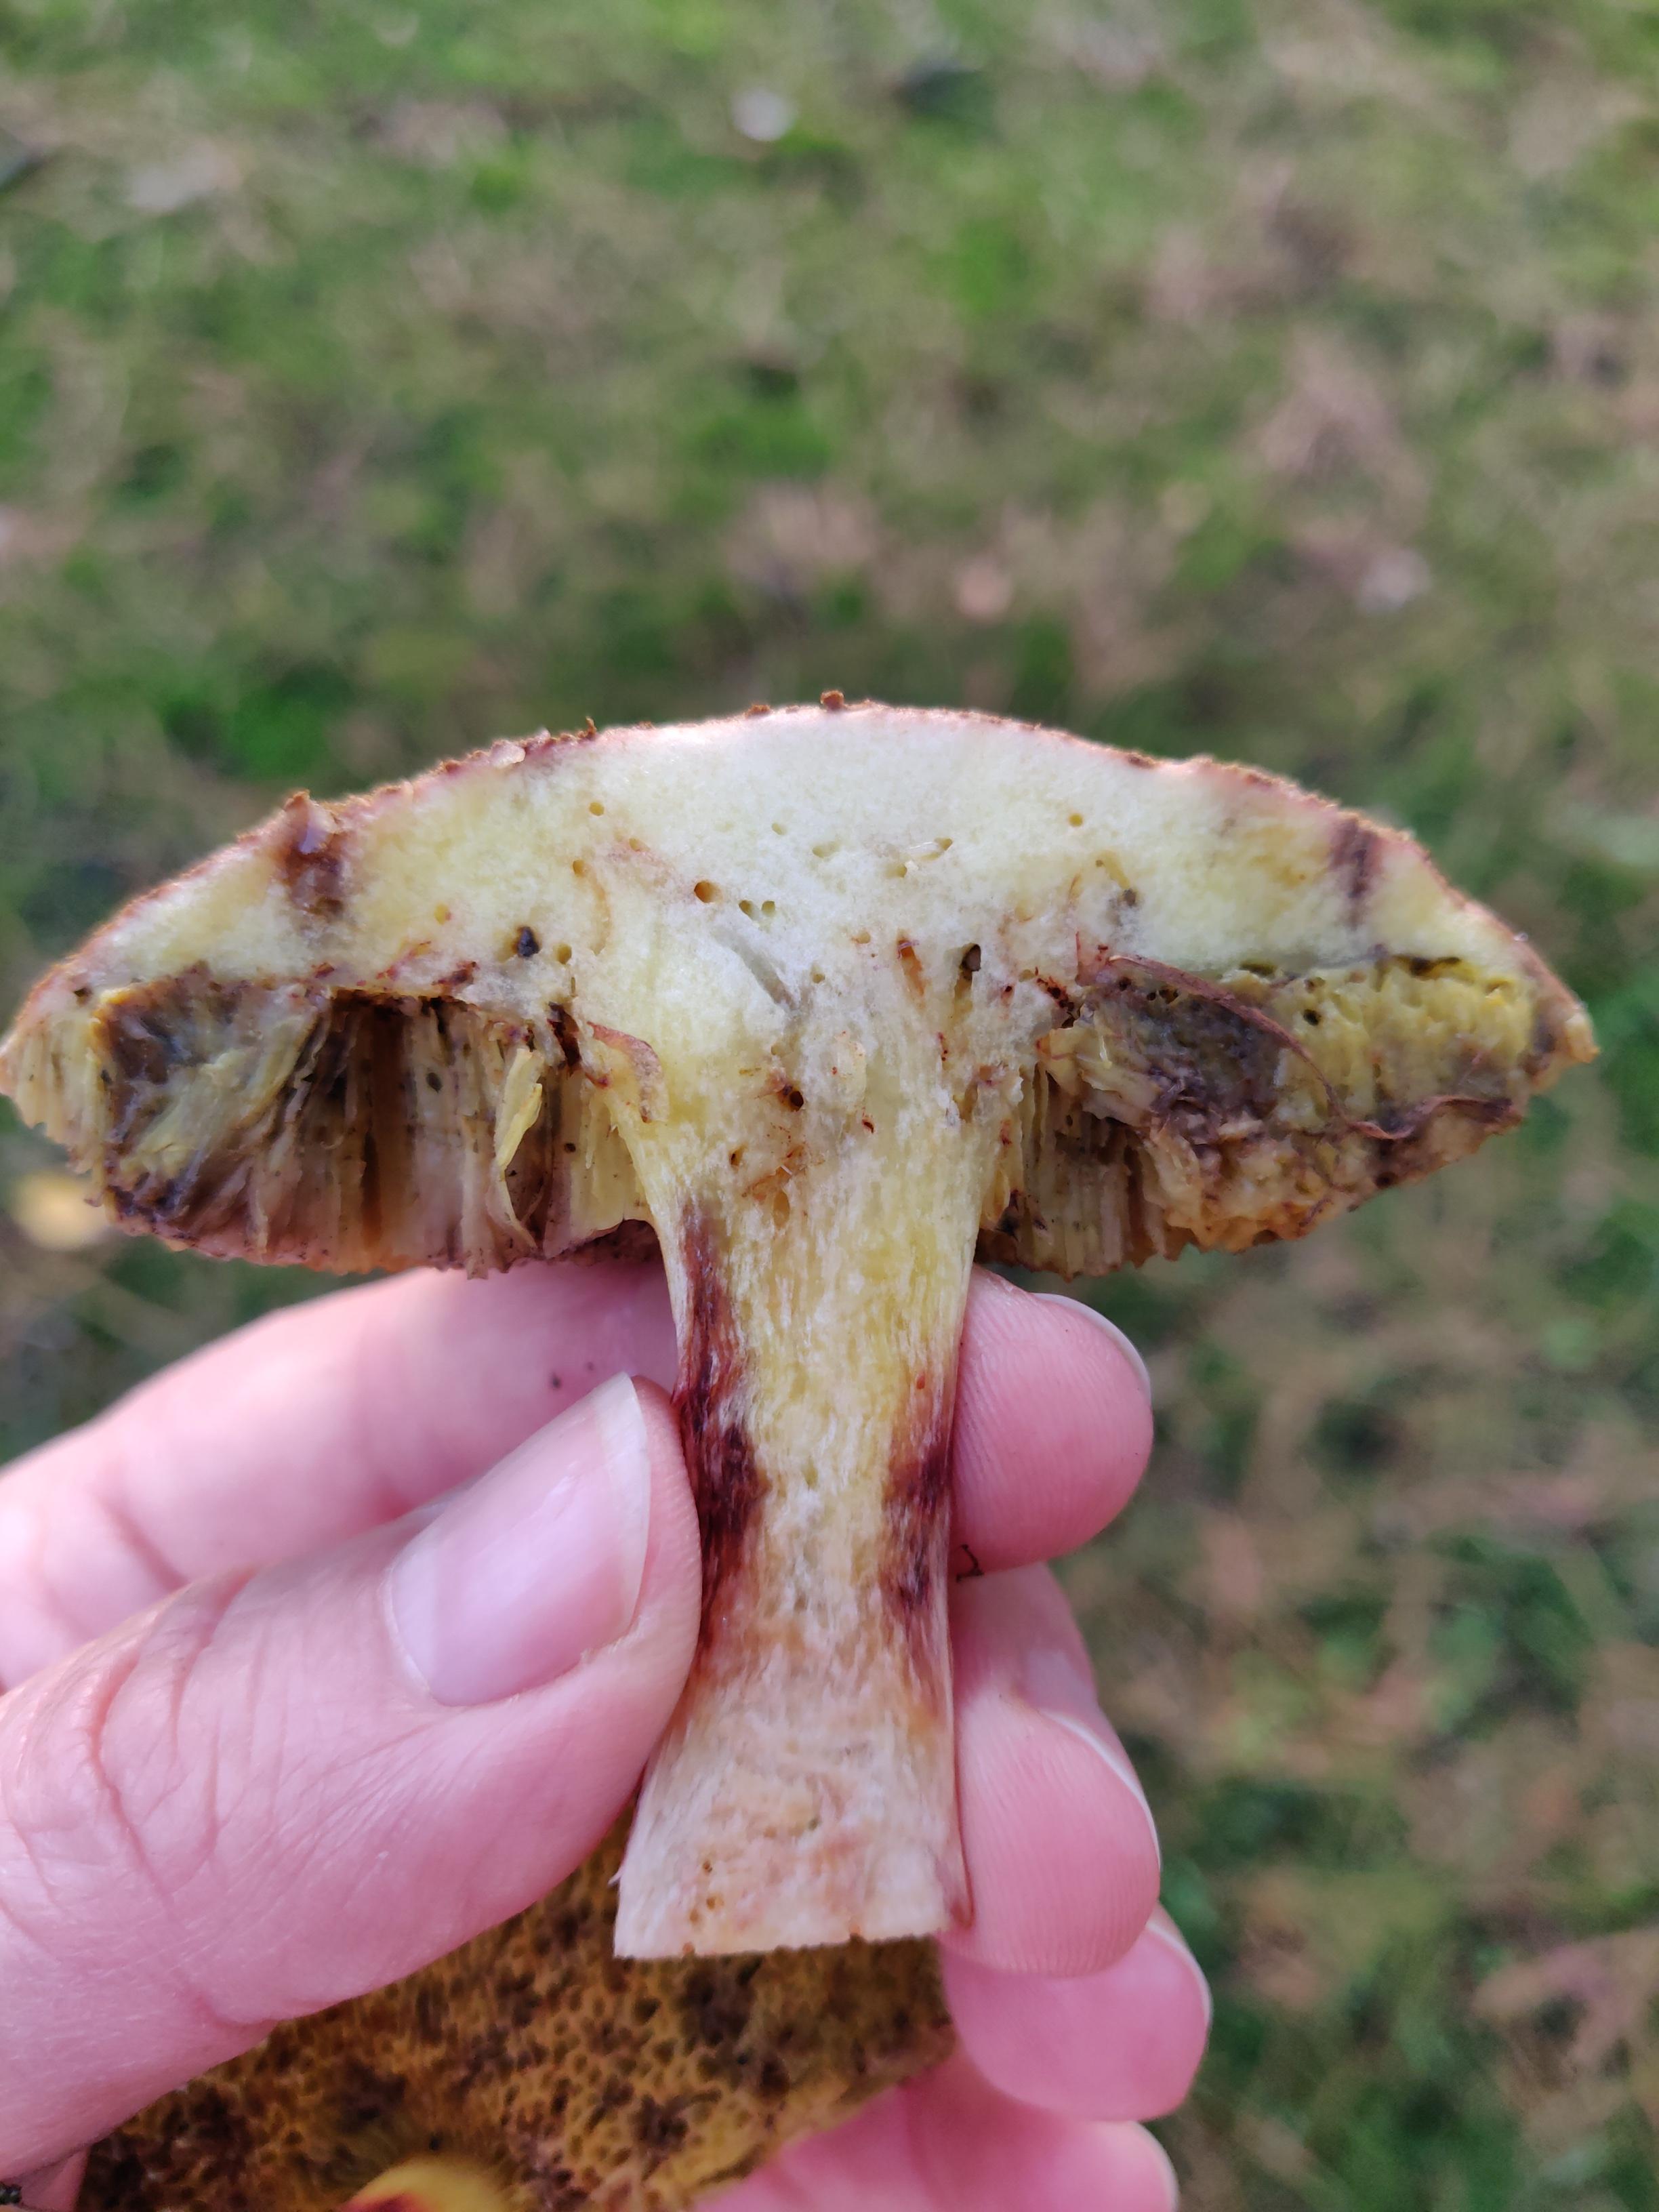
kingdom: Fungi
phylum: Basidiomycota
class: Agaricomycetes
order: Boletales
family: Boletaceae
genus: Xerocomellus
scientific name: Xerocomellus
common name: dværgrørhat
